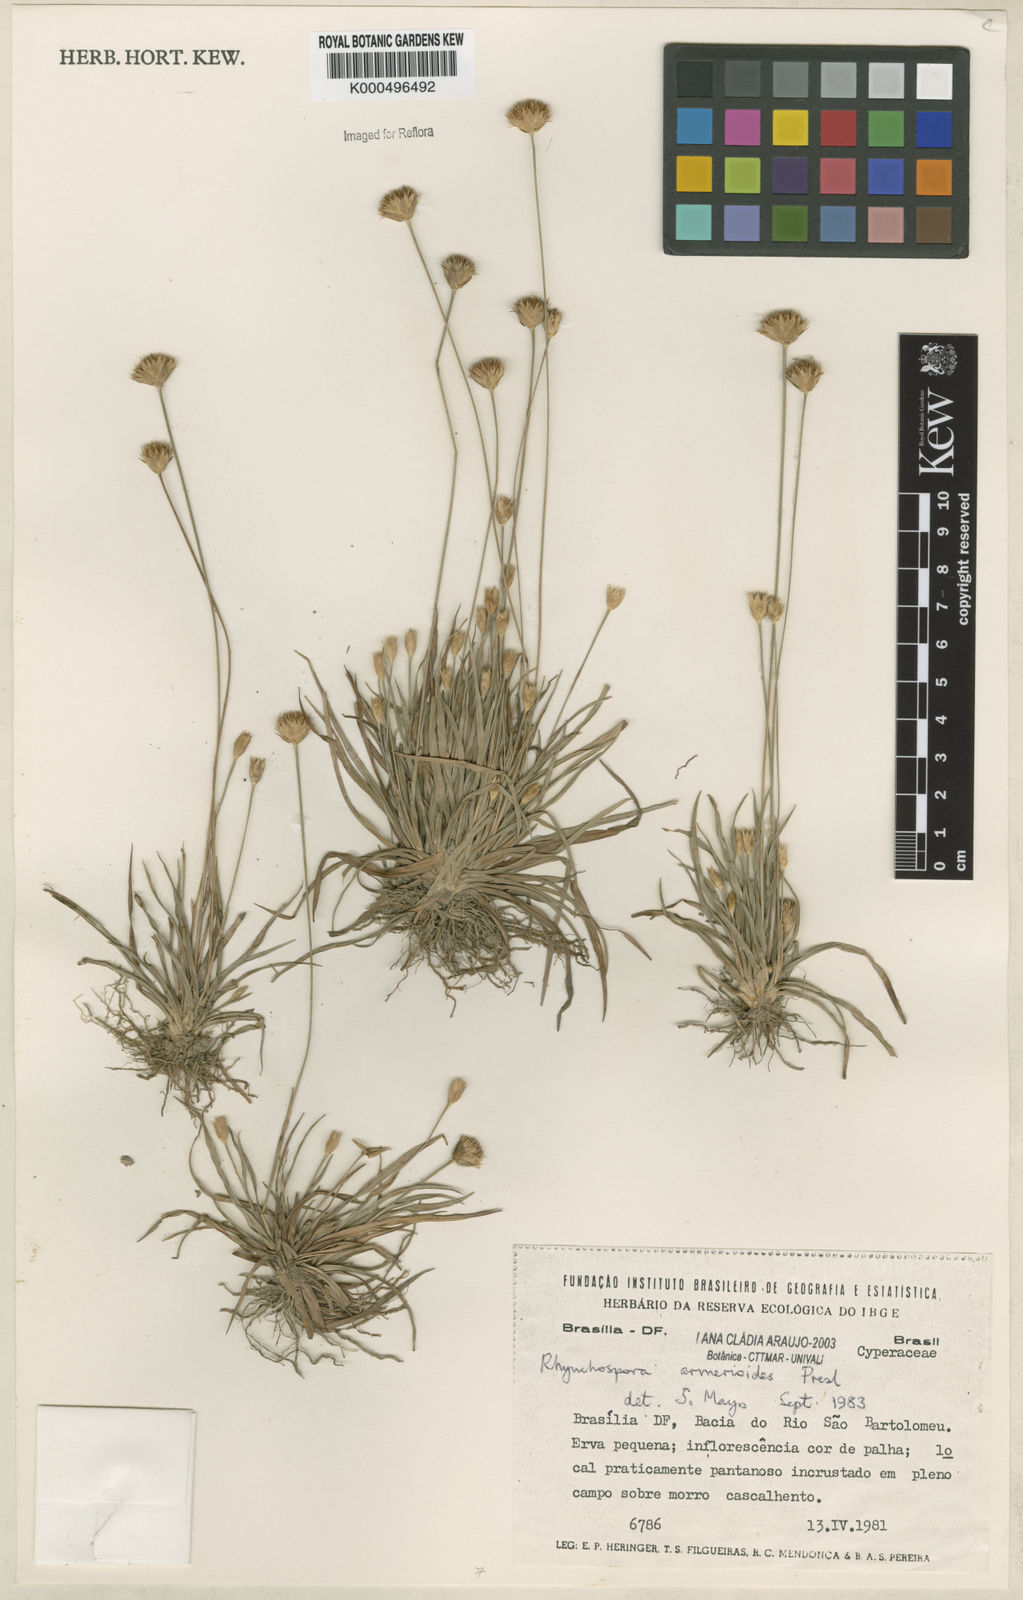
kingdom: Plantae
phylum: Tracheophyta
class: Liliopsida
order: Poales
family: Cyperaceae
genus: Rhynchospora
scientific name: Rhynchospora armerioides
